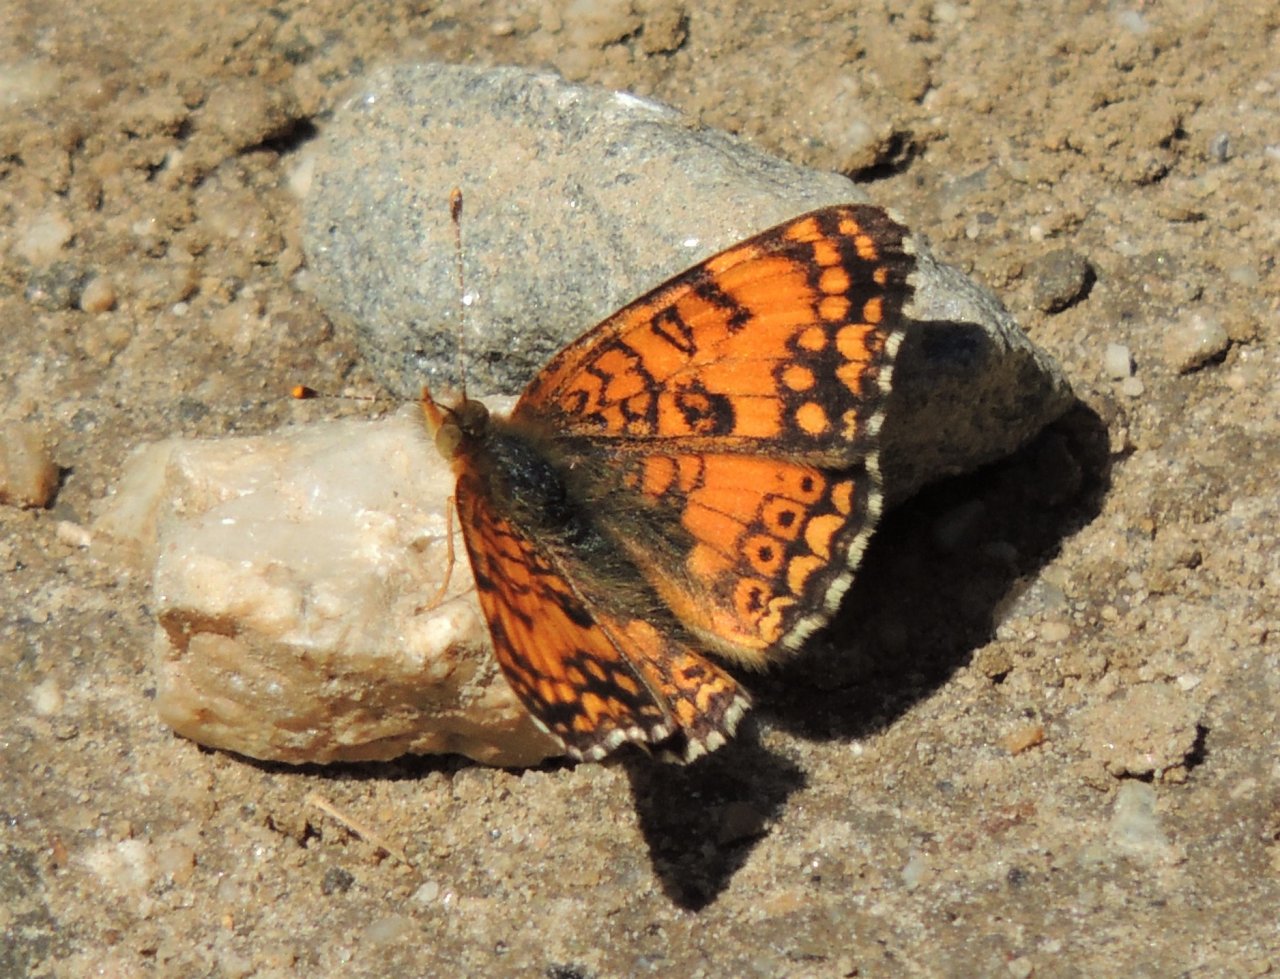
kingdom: Animalia
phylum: Arthropoda
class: Insecta
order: Lepidoptera
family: Nymphalidae
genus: Eresia
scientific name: Eresia aveyrona
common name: Mylitta Crescent
